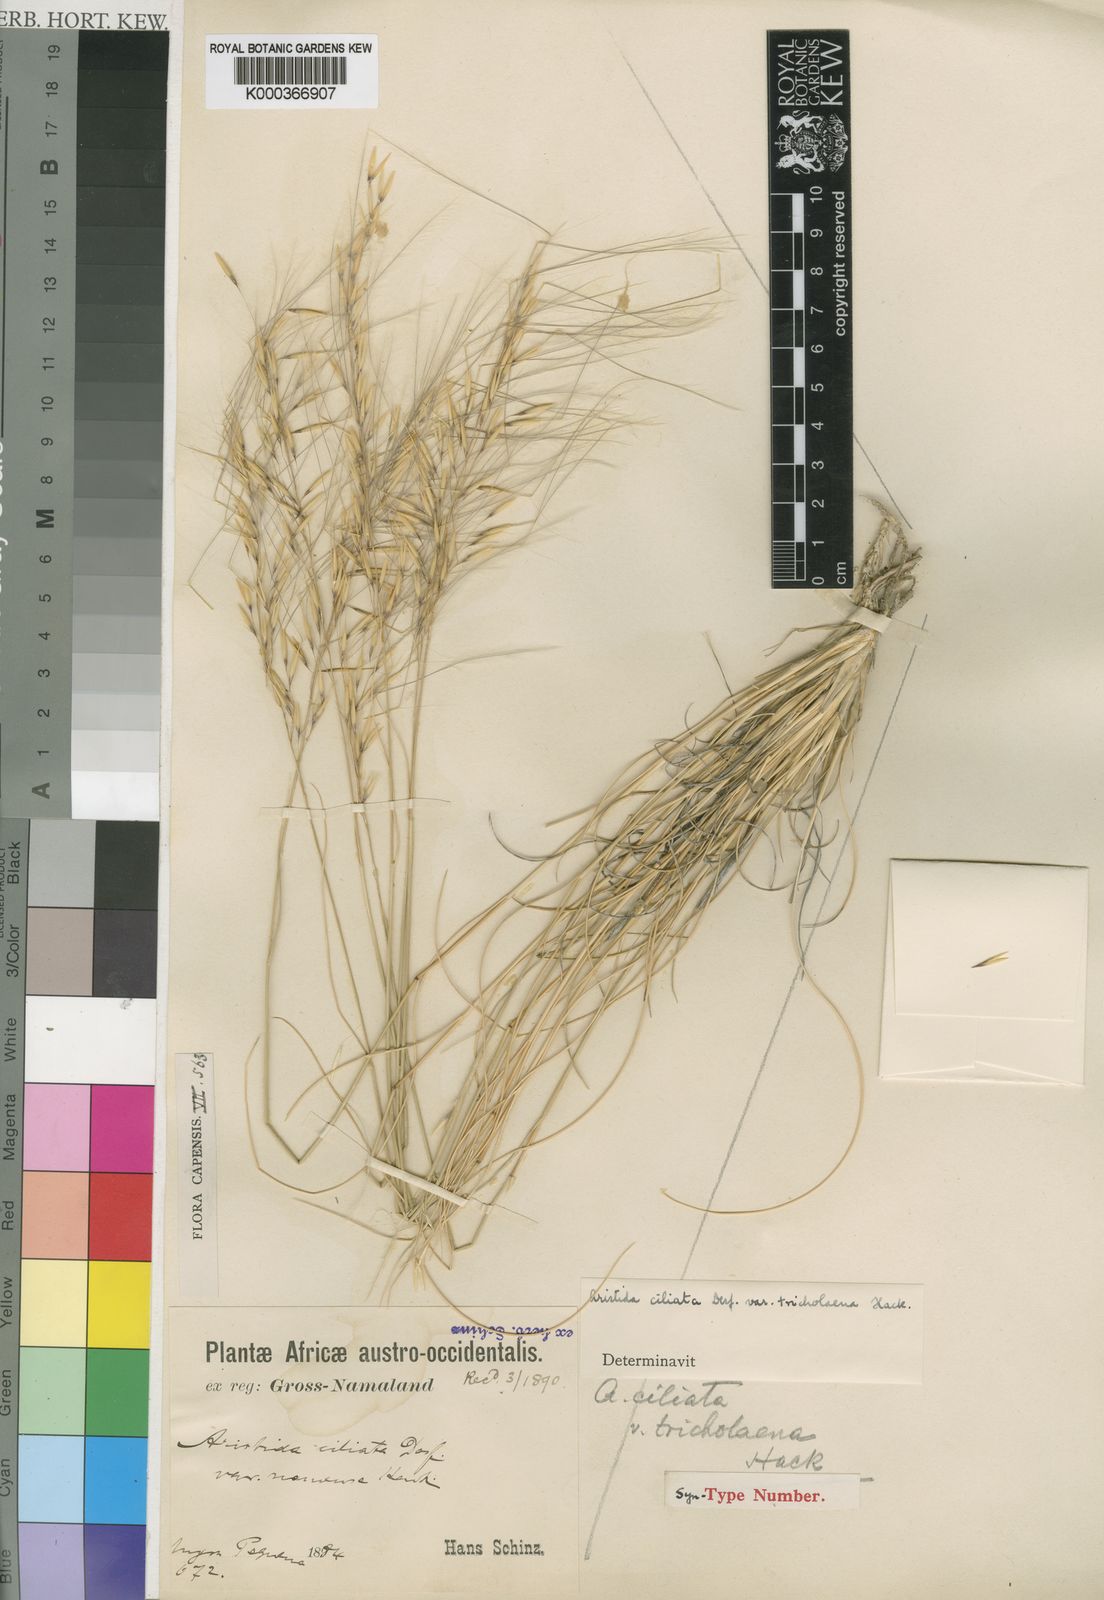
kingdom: Plantae
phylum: Tracheophyta
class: Liliopsida
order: Poales
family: Poaceae
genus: Stipagrostis
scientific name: Stipagrostis ciliata
